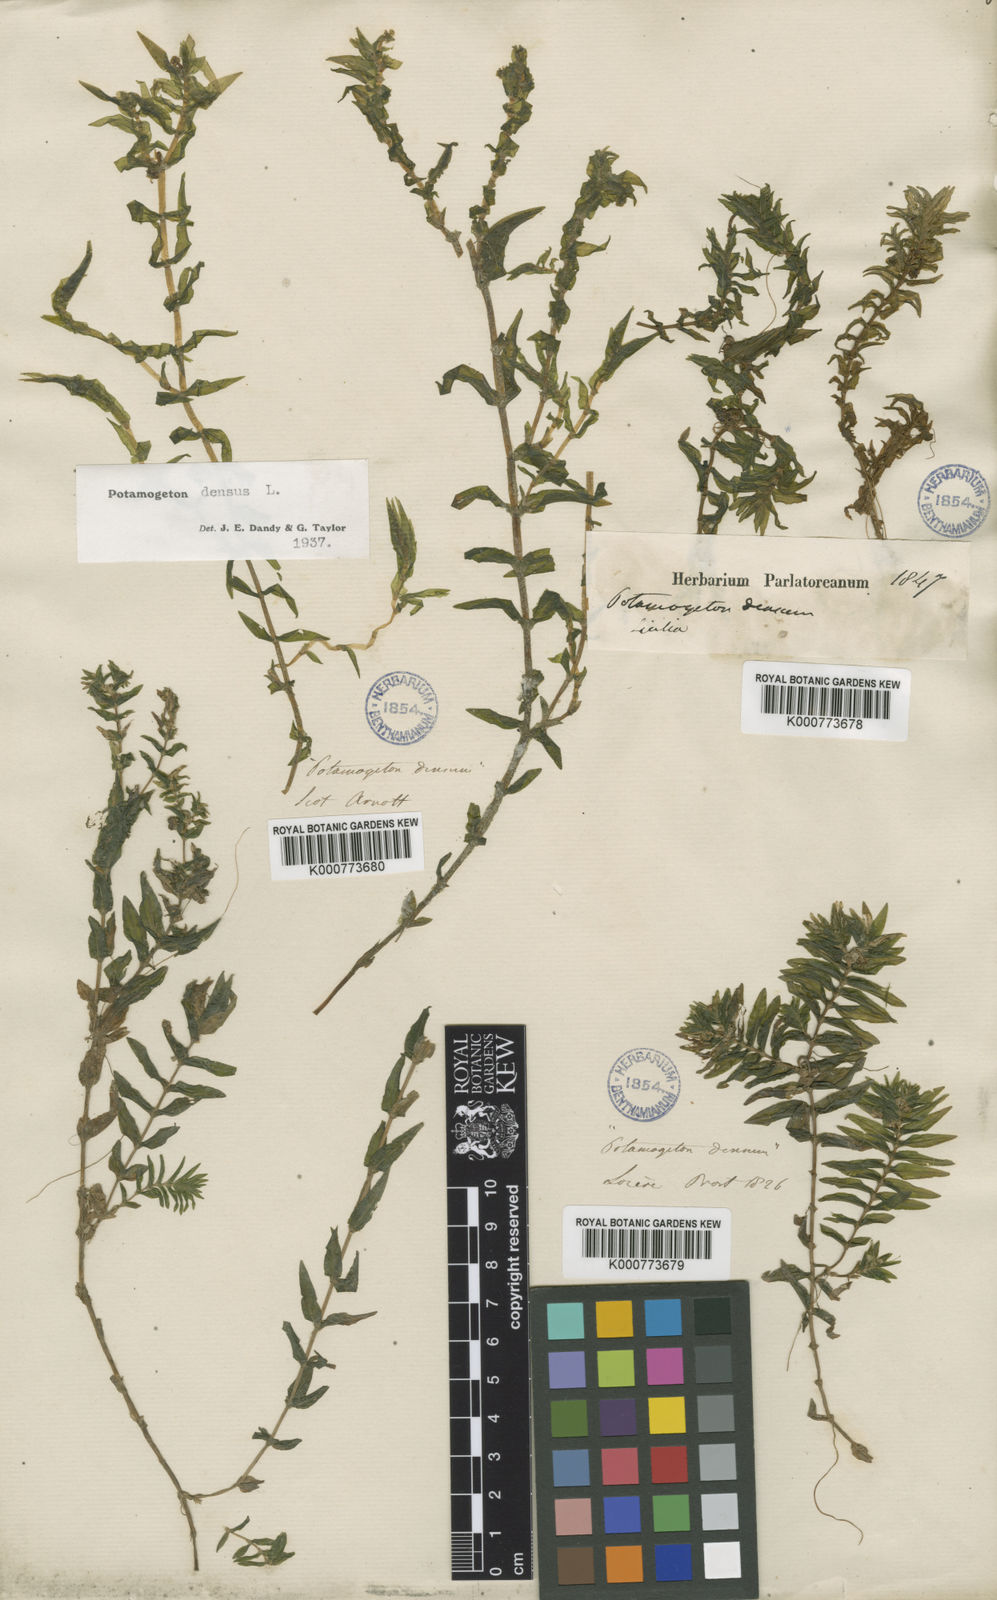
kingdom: Plantae
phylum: Tracheophyta
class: Liliopsida
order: Alismatales
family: Potamogetonaceae
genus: Groenlandia
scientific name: Groenlandia densa
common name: Opposite-leaved pondweed
